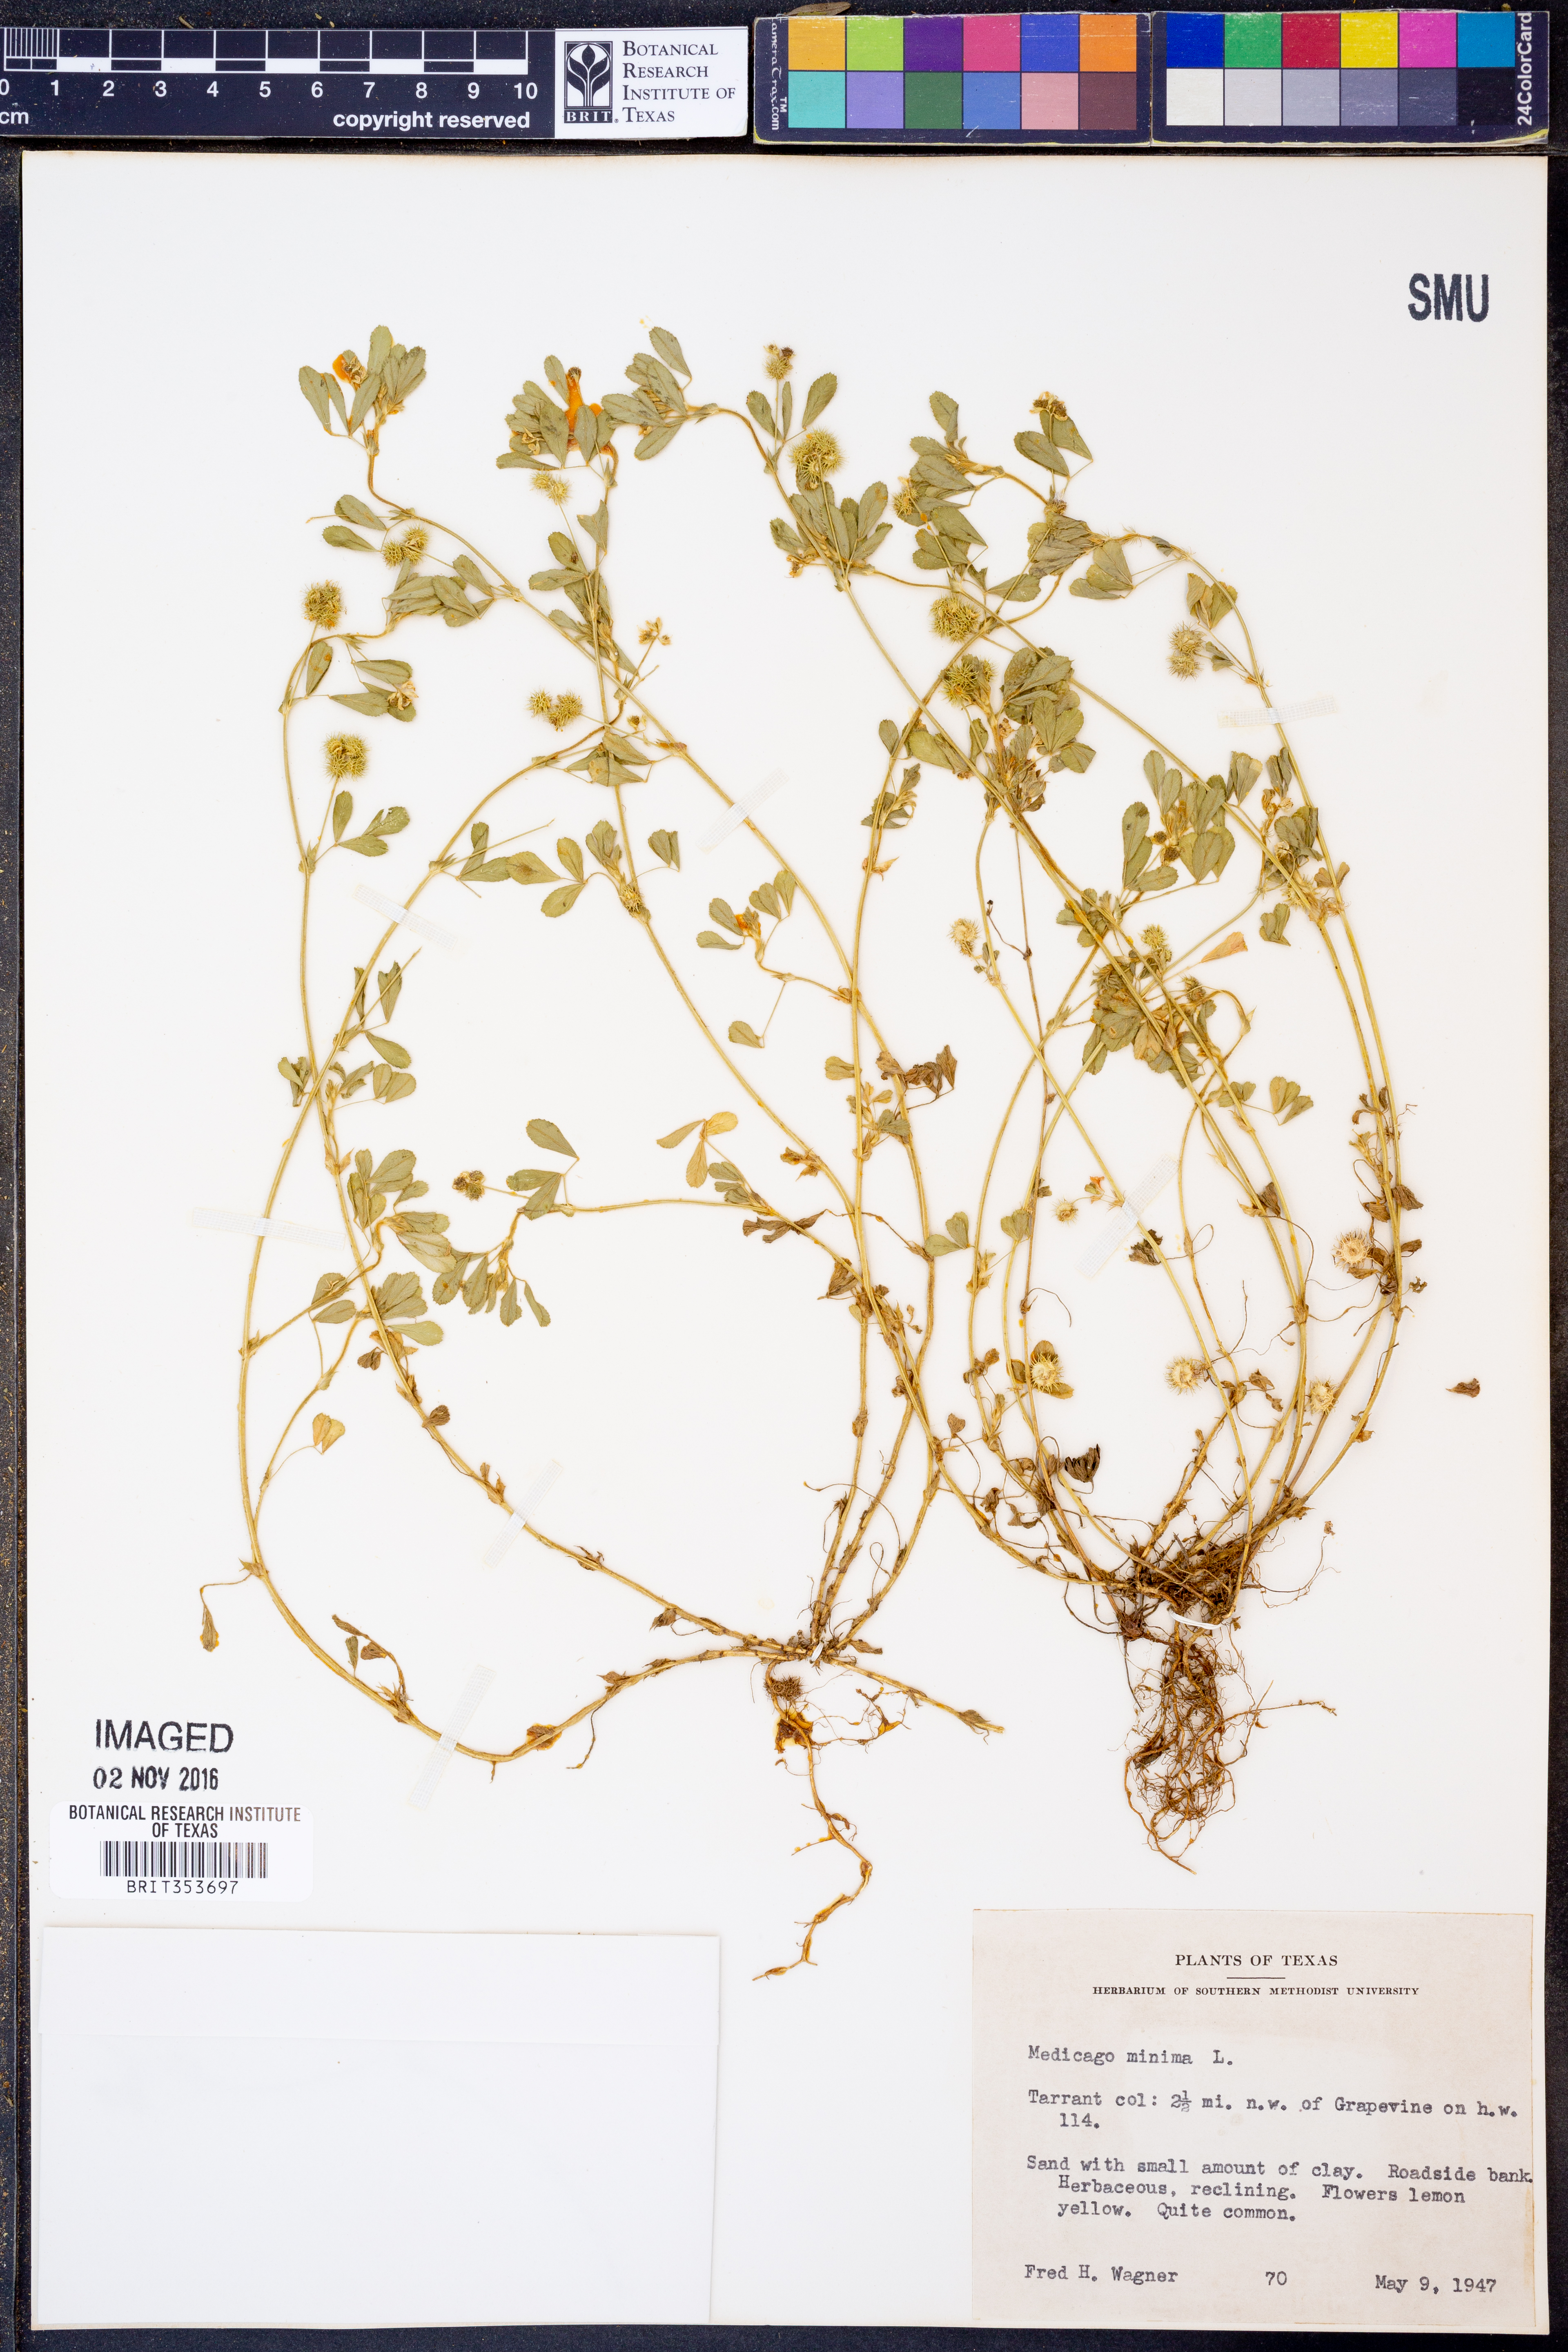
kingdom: Plantae
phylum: Tracheophyta
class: Magnoliopsida
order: Fabales
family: Fabaceae
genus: Medicago
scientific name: Medicago minima
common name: Little bur-clover
